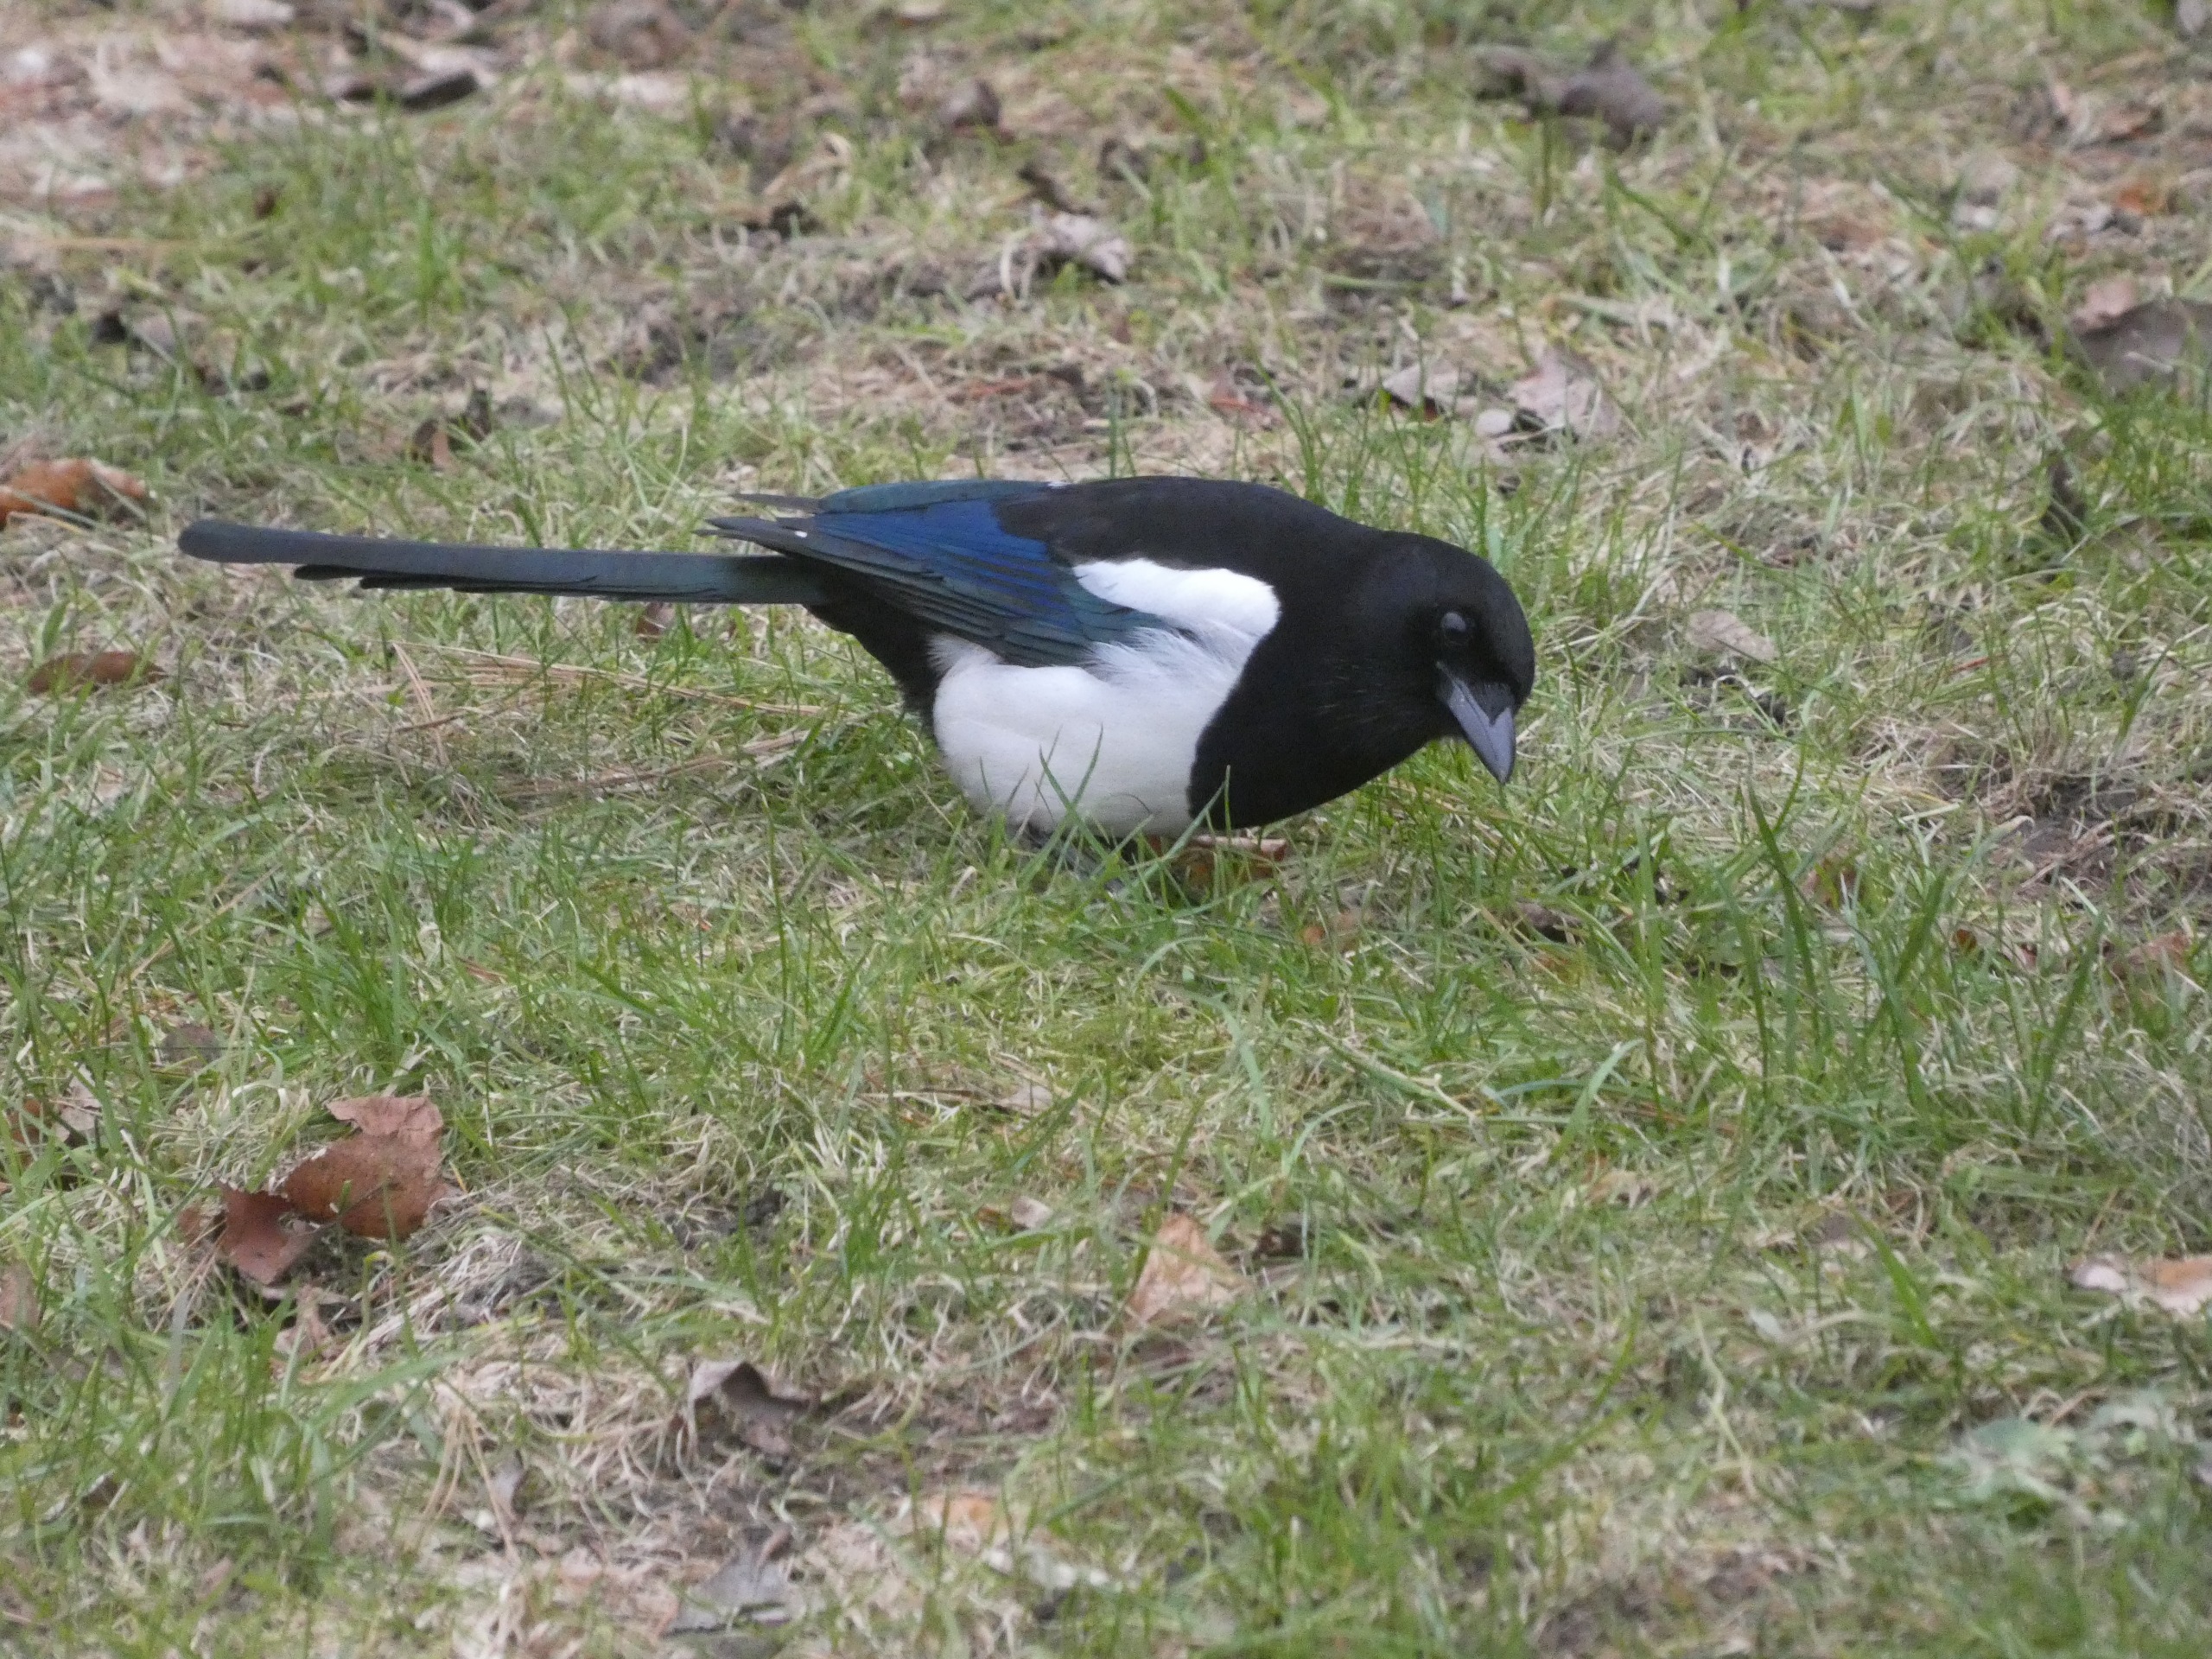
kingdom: Animalia
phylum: Chordata
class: Aves
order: Passeriformes
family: Corvidae
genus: Pica
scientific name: Pica pica
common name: Husskade
